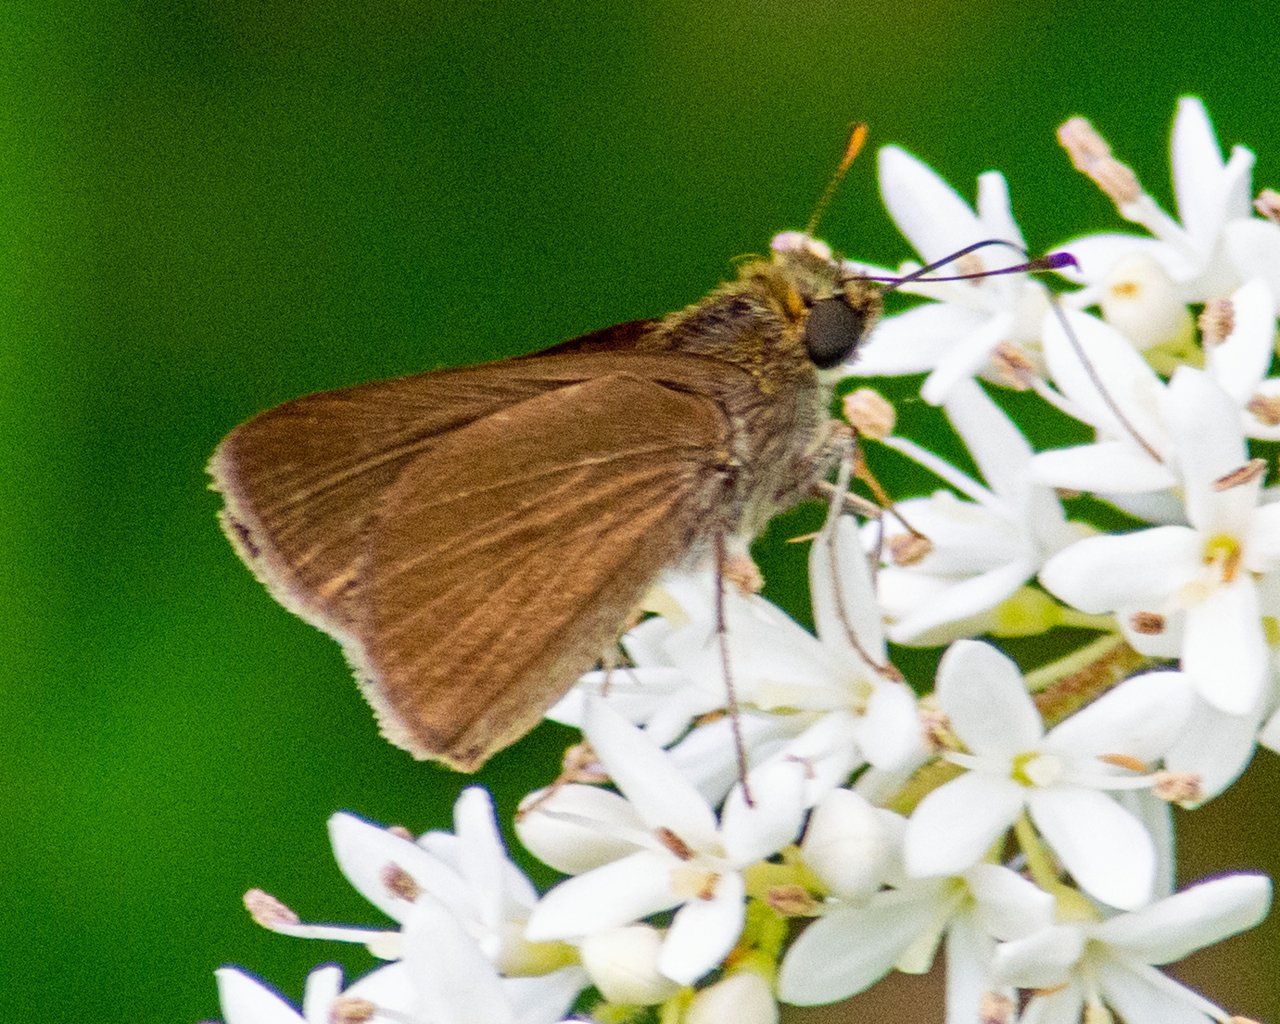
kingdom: Animalia
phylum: Arthropoda
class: Insecta
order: Lepidoptera
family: Hesperiidae
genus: Euphyes
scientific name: Euphyes vestris
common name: Dun Skipper
